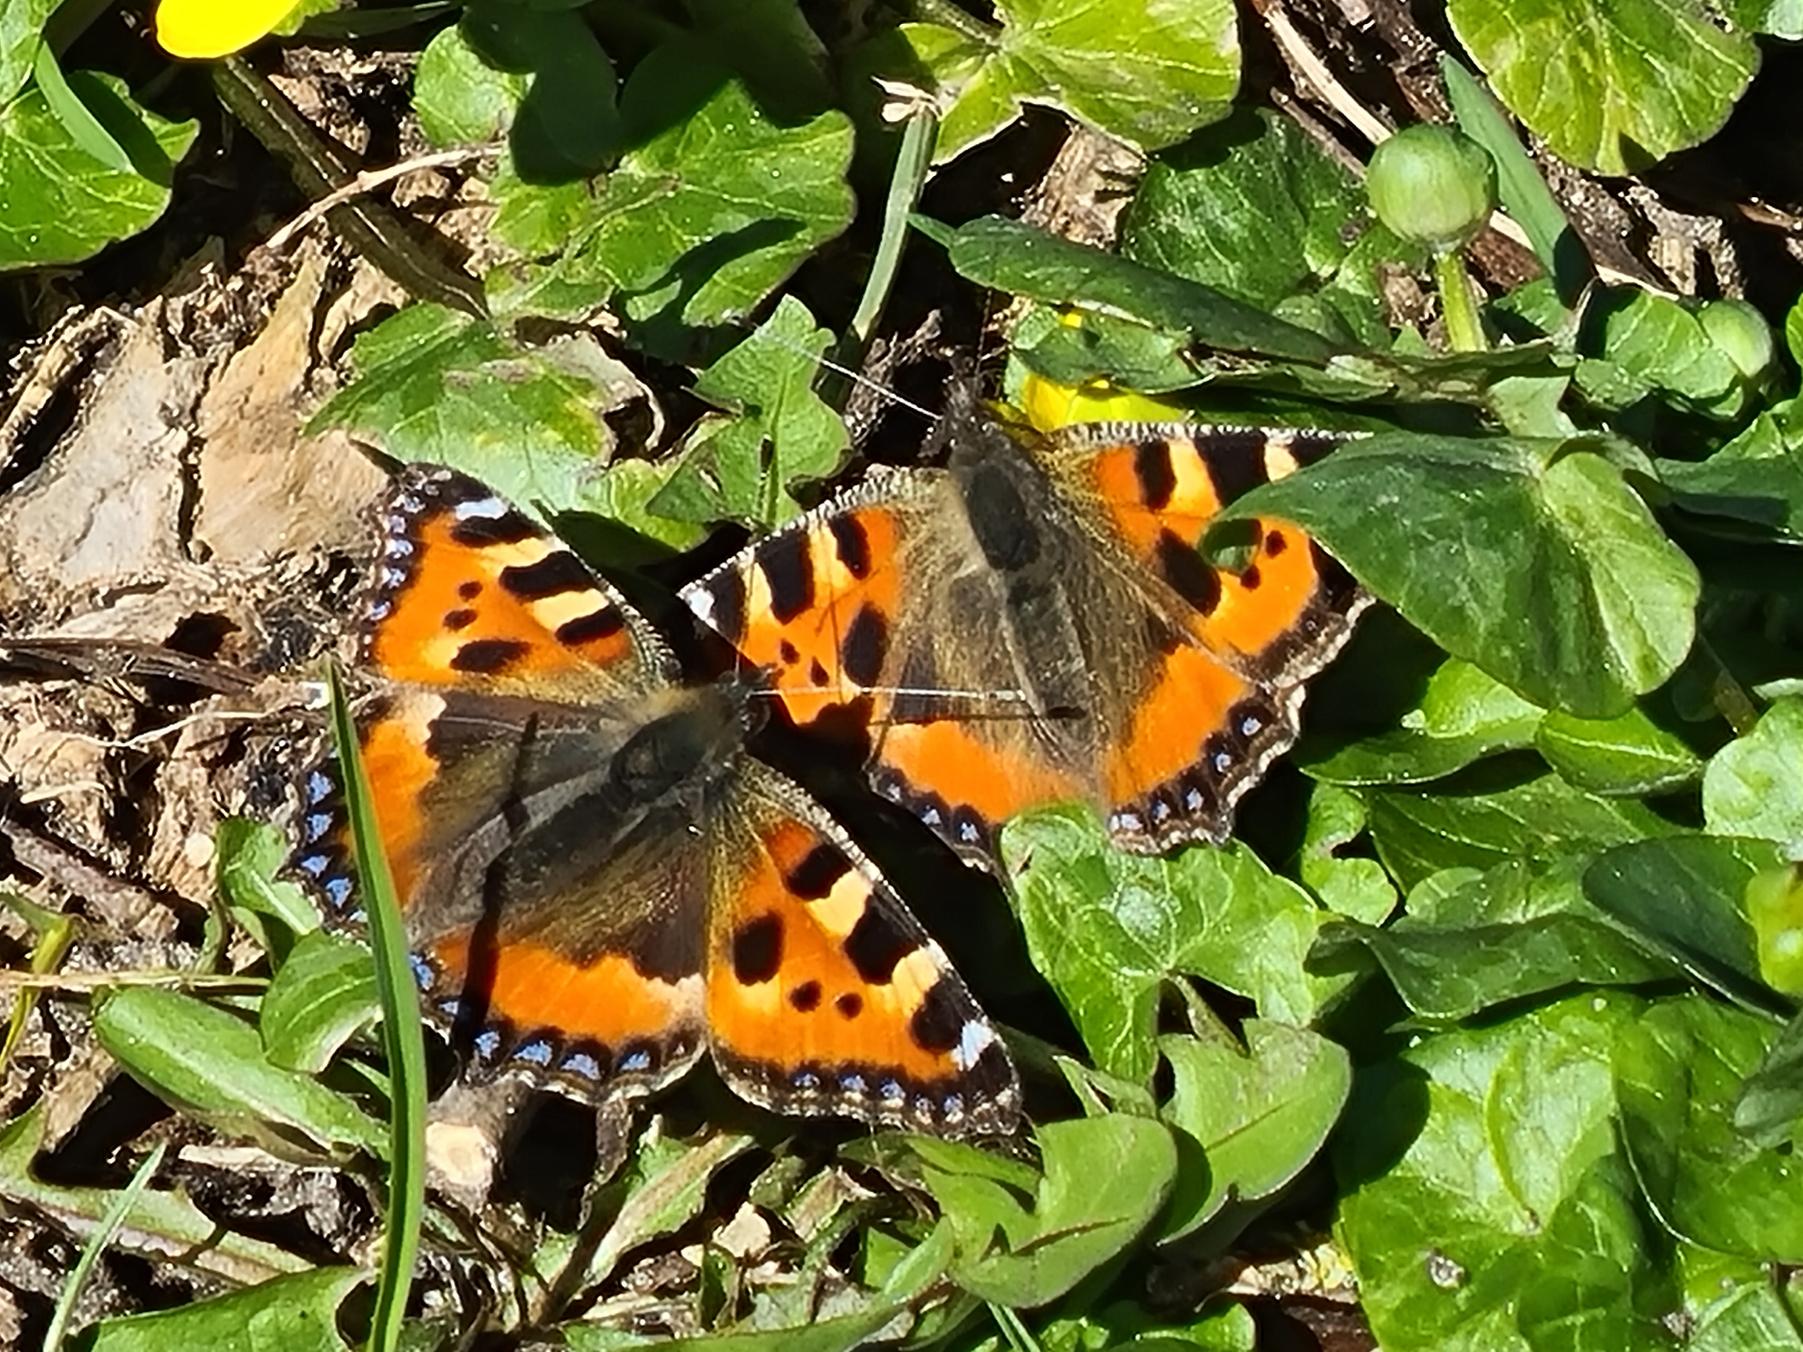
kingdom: Animalia
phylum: Arthropoda
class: Insecta
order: Lepidoptera
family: Nymphalidae
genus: Aglais
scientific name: Aglais urticae
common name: Nældens takvinge
